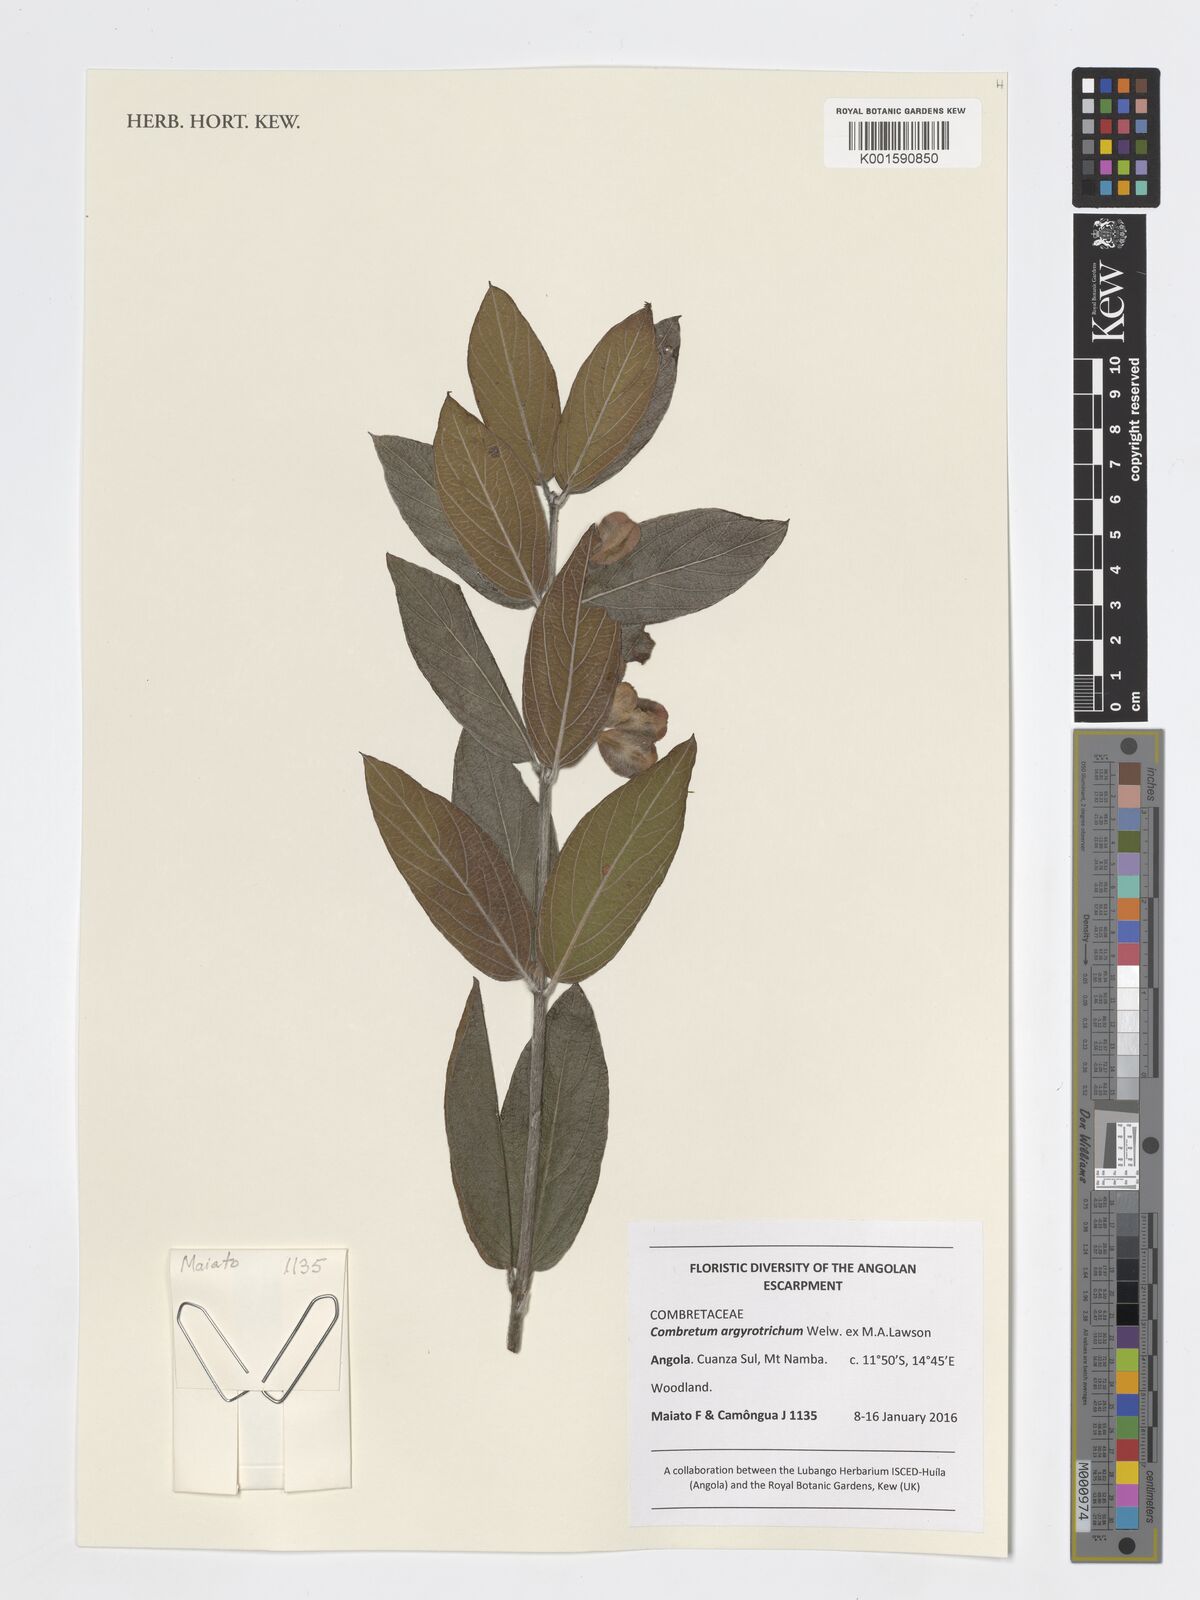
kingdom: Plantae
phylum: Tracheophyta
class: Magnoliopsida
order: Myrtales
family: Combretaceae
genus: Combretum
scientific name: Combretum argyrotrichum
